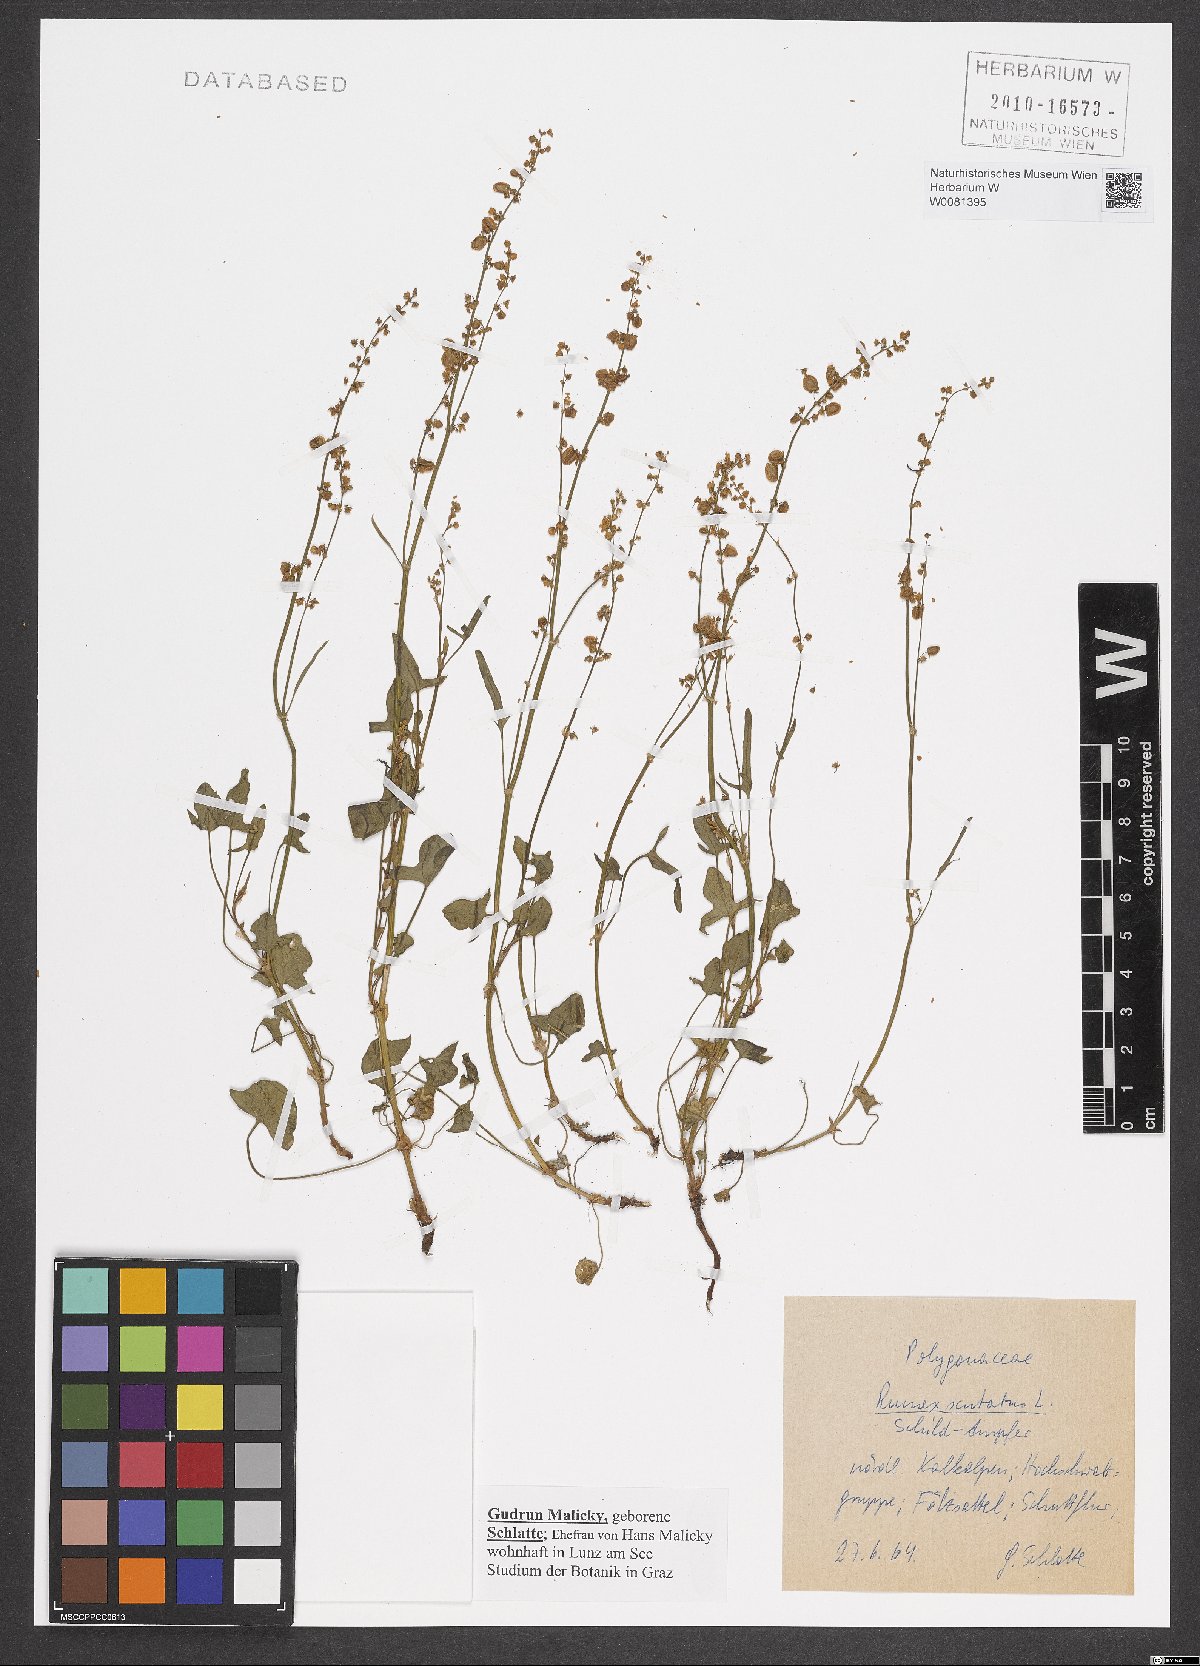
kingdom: Plantae
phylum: Tracheophyta
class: Magnoliopsida
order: Caryophyllales
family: Polygonaceae
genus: Rumex
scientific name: Rumex scutatus
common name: French sorrel
